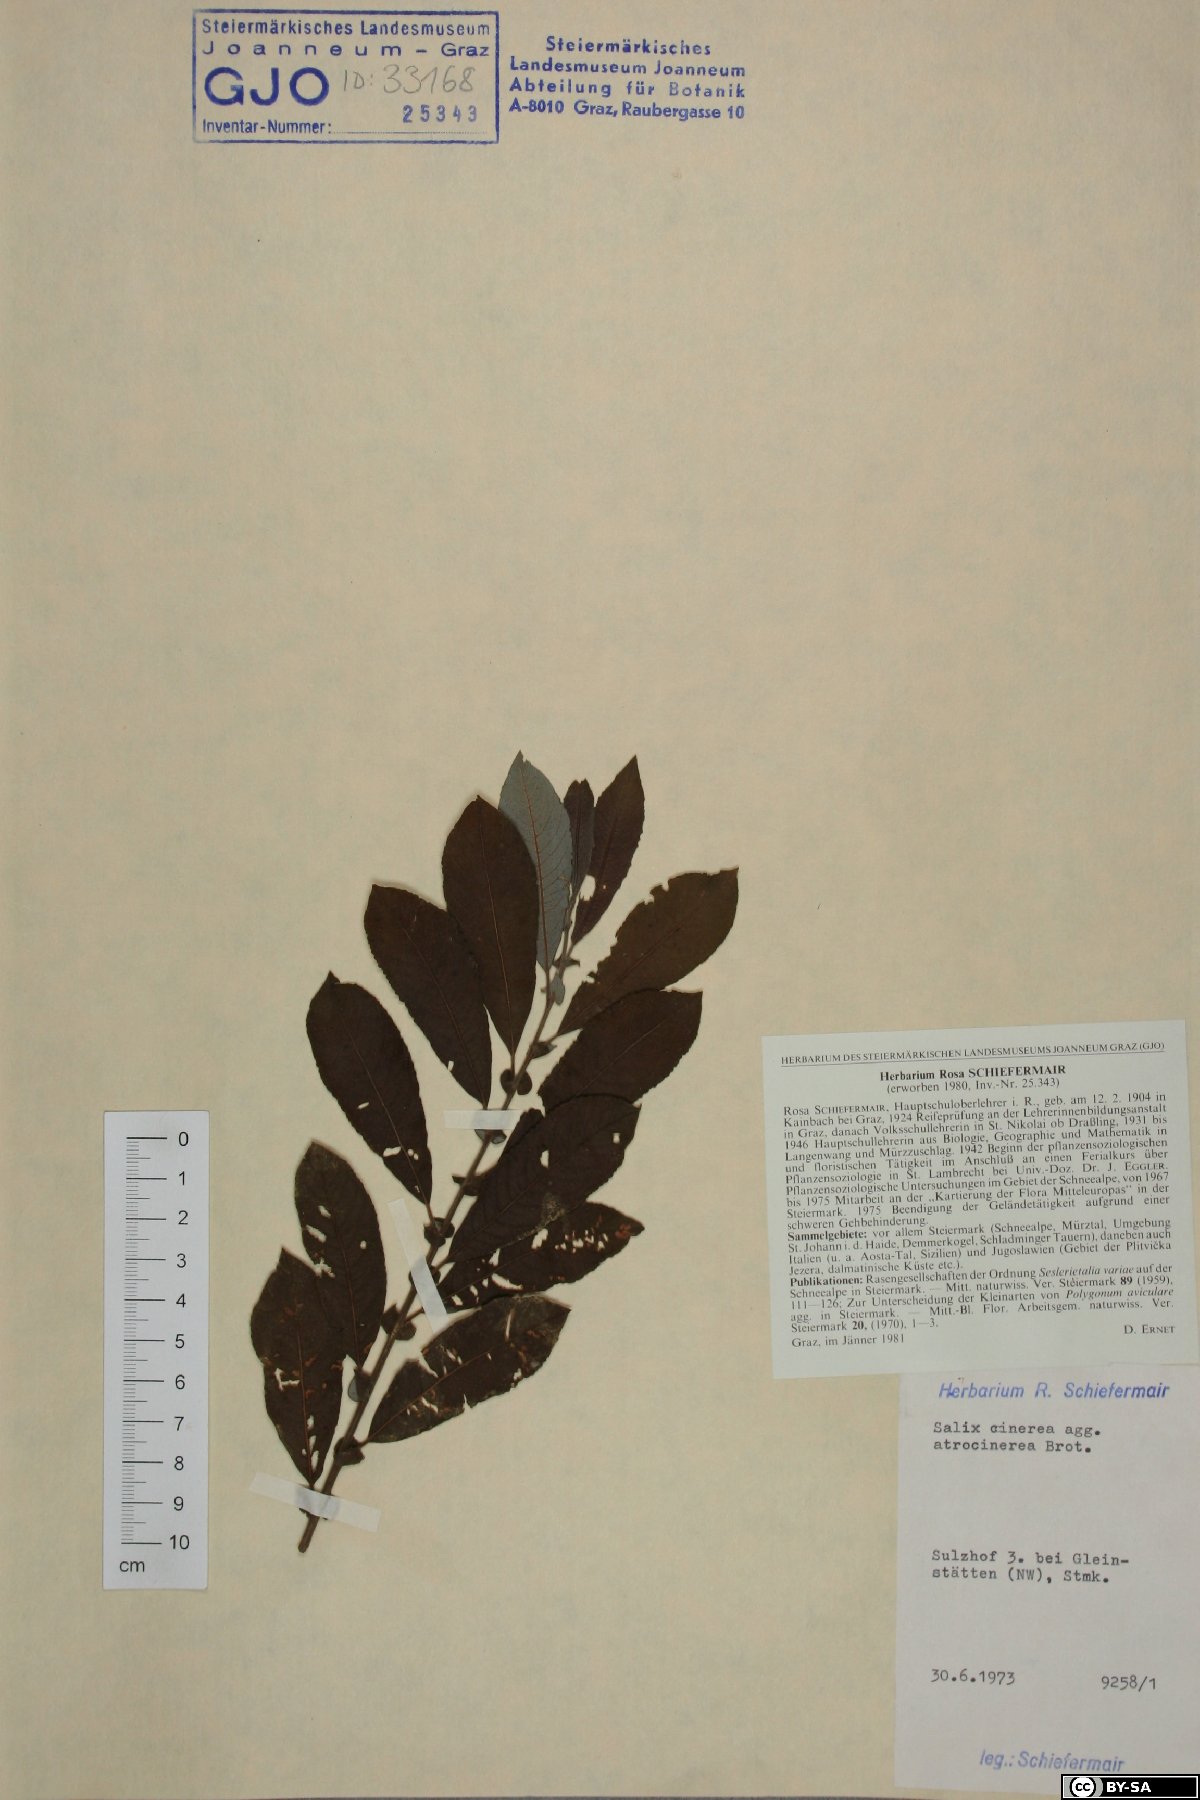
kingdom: Plantae
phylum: Tracheophyta
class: Magnoliopsida
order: Malpighiales
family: Salicaceae
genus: Salix
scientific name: Salix atrocinerea
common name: Rusty willow
